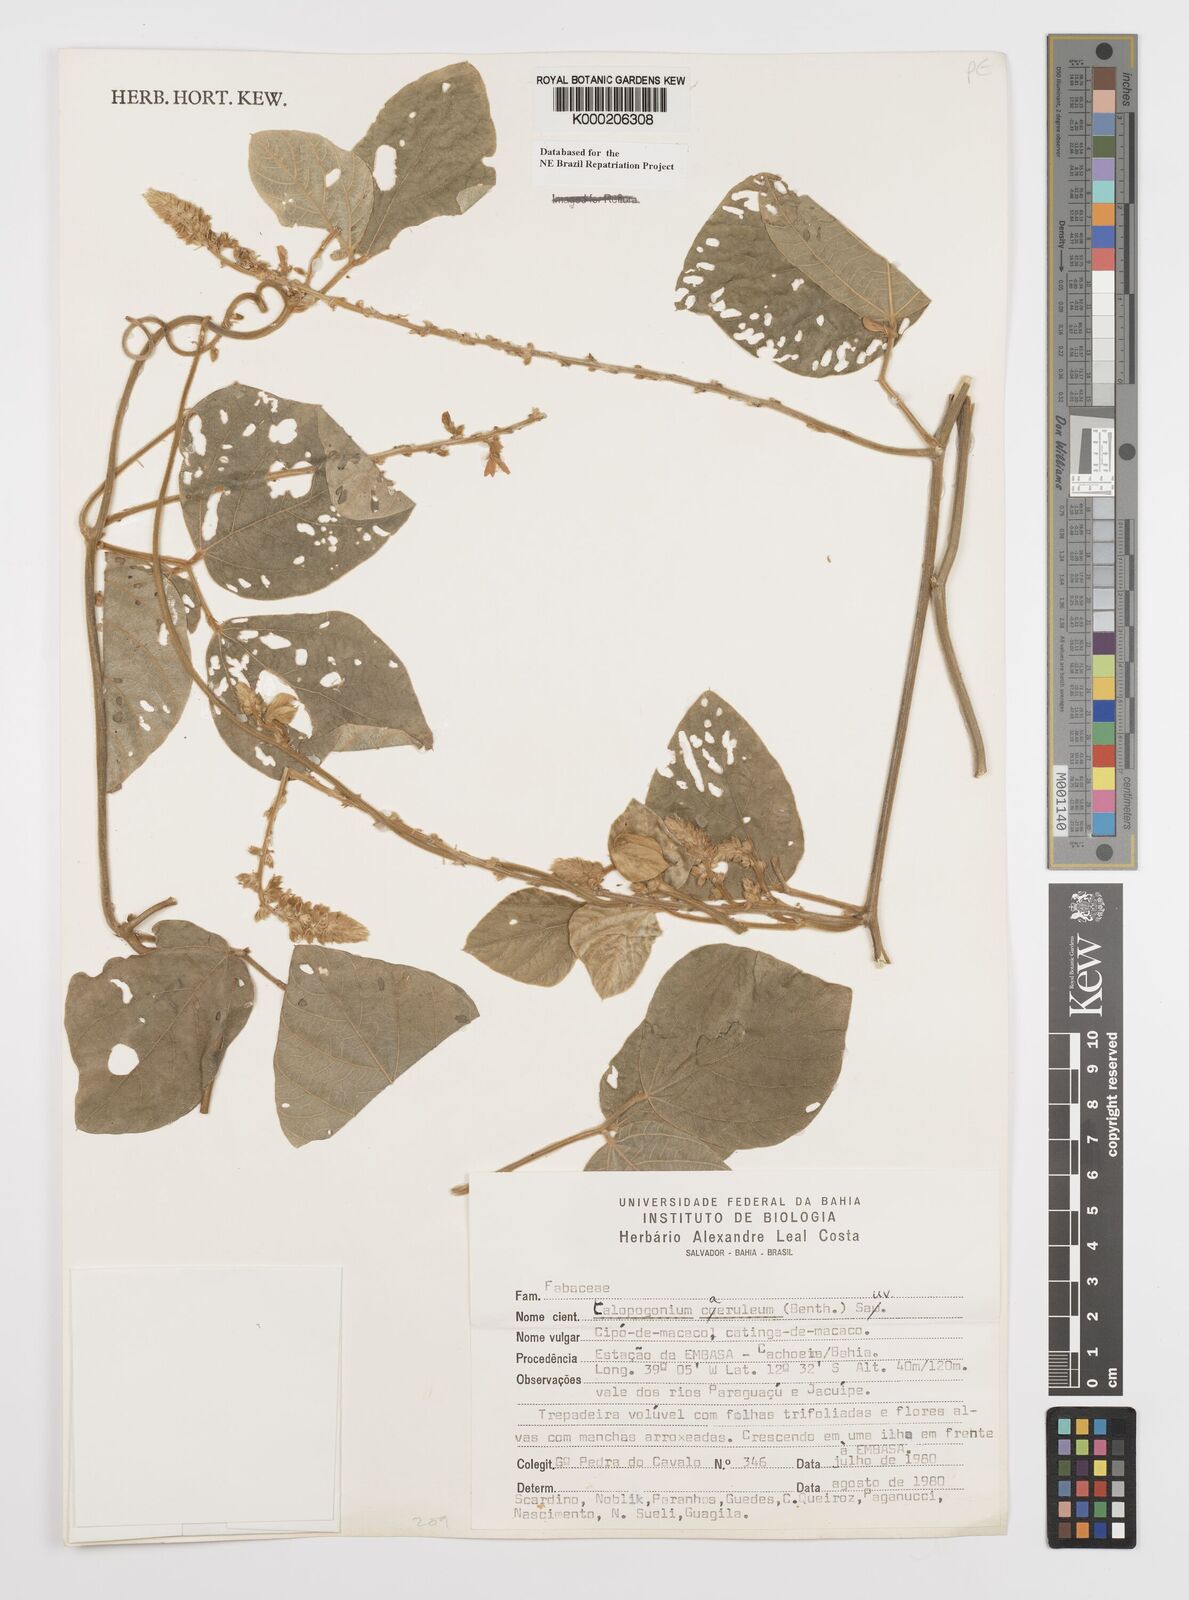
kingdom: Plantae
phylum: Tracheophyta
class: Magnoliopsida
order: Fabales
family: Fabaceae
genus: Calopogonium
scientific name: Calopogonium
